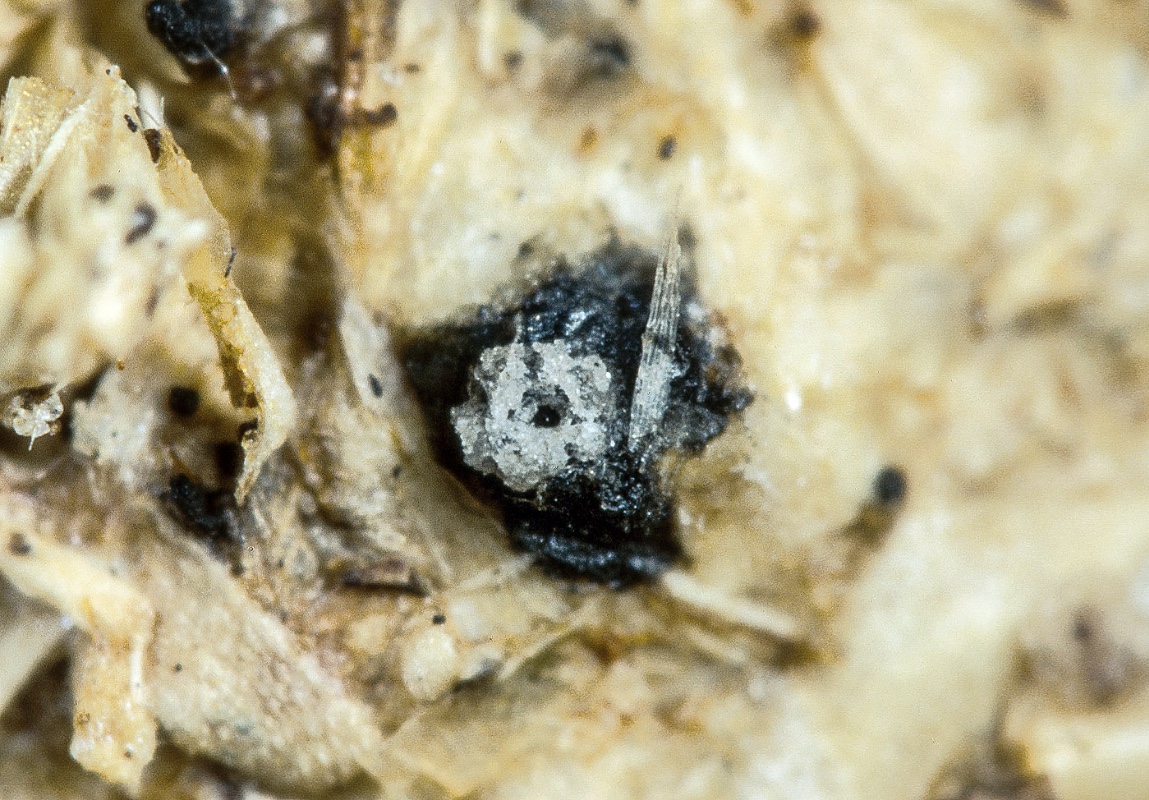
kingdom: Fungi
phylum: Ascomycota
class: Sordariomycetes
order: Xylariales
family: Xylariaceae
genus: Hypocopra
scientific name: Hypocopra annulata
